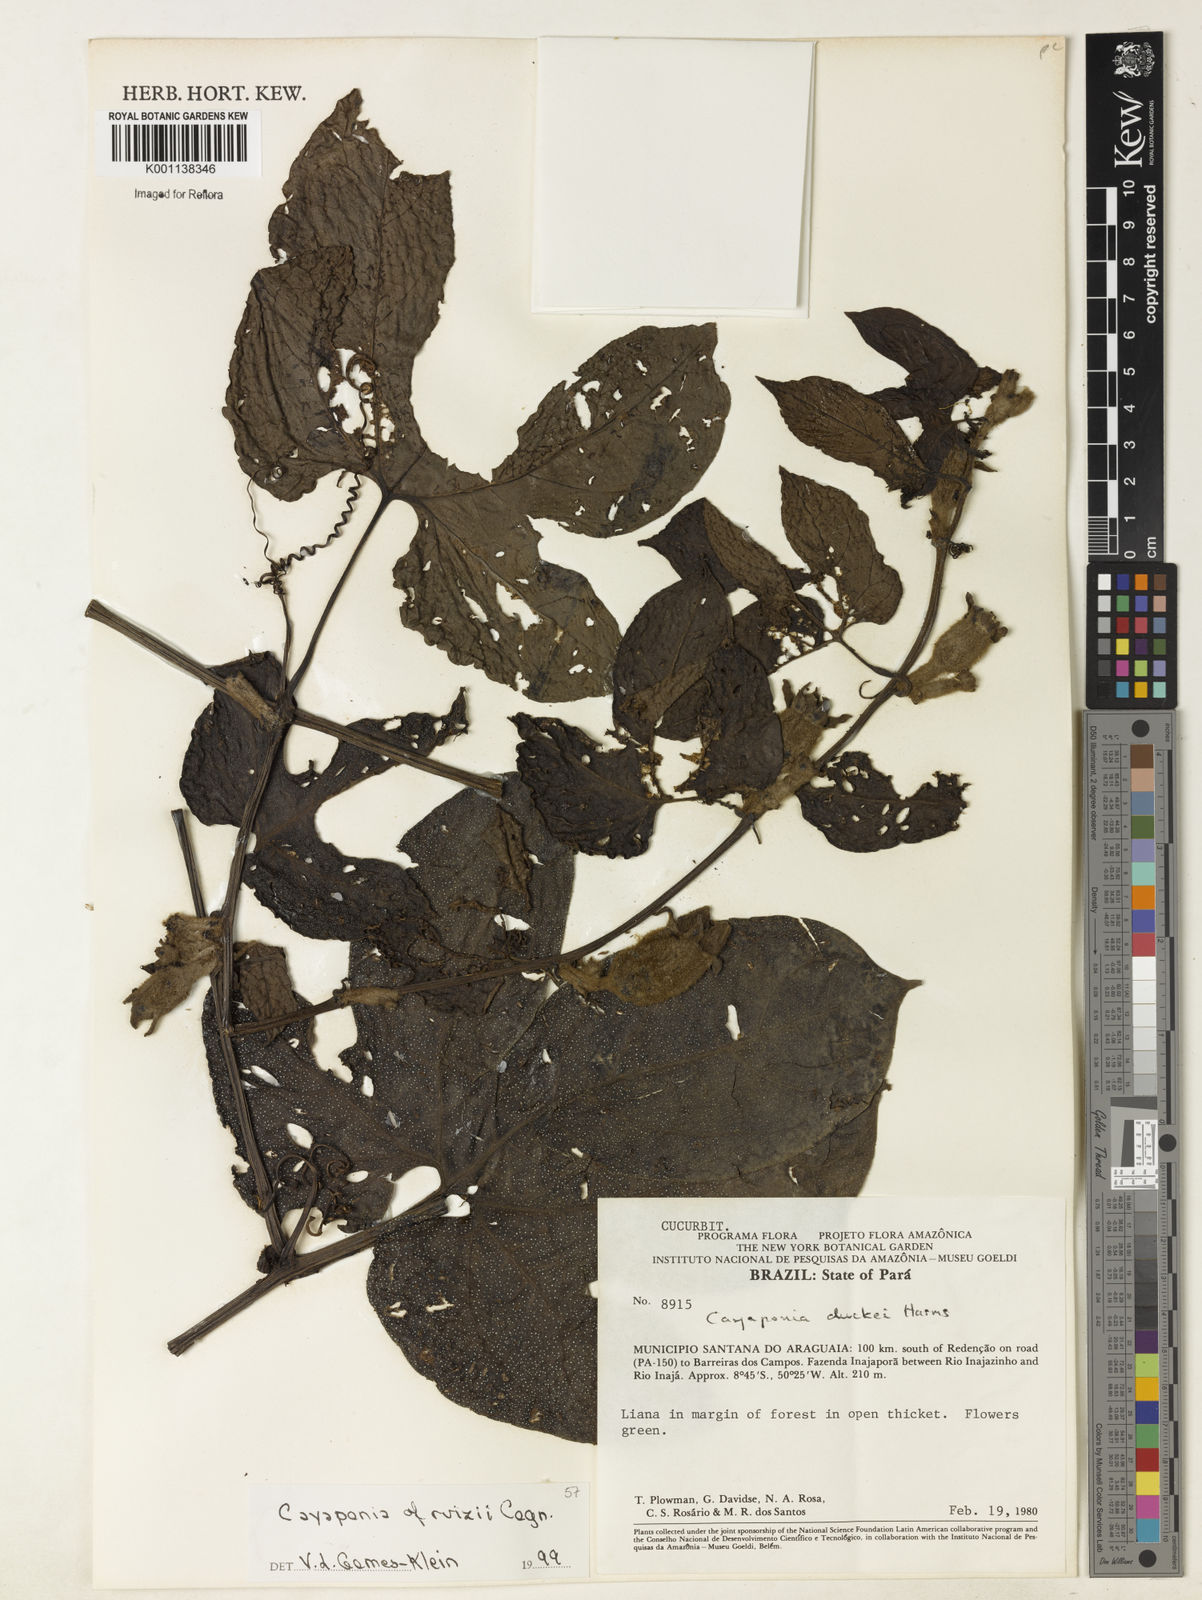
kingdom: Plantae
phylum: Tracheophyta
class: Magnoliopsida
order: Cucurbitales
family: Cucurbitaceae
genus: Cayaponia
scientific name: Cayaponia ruizii
